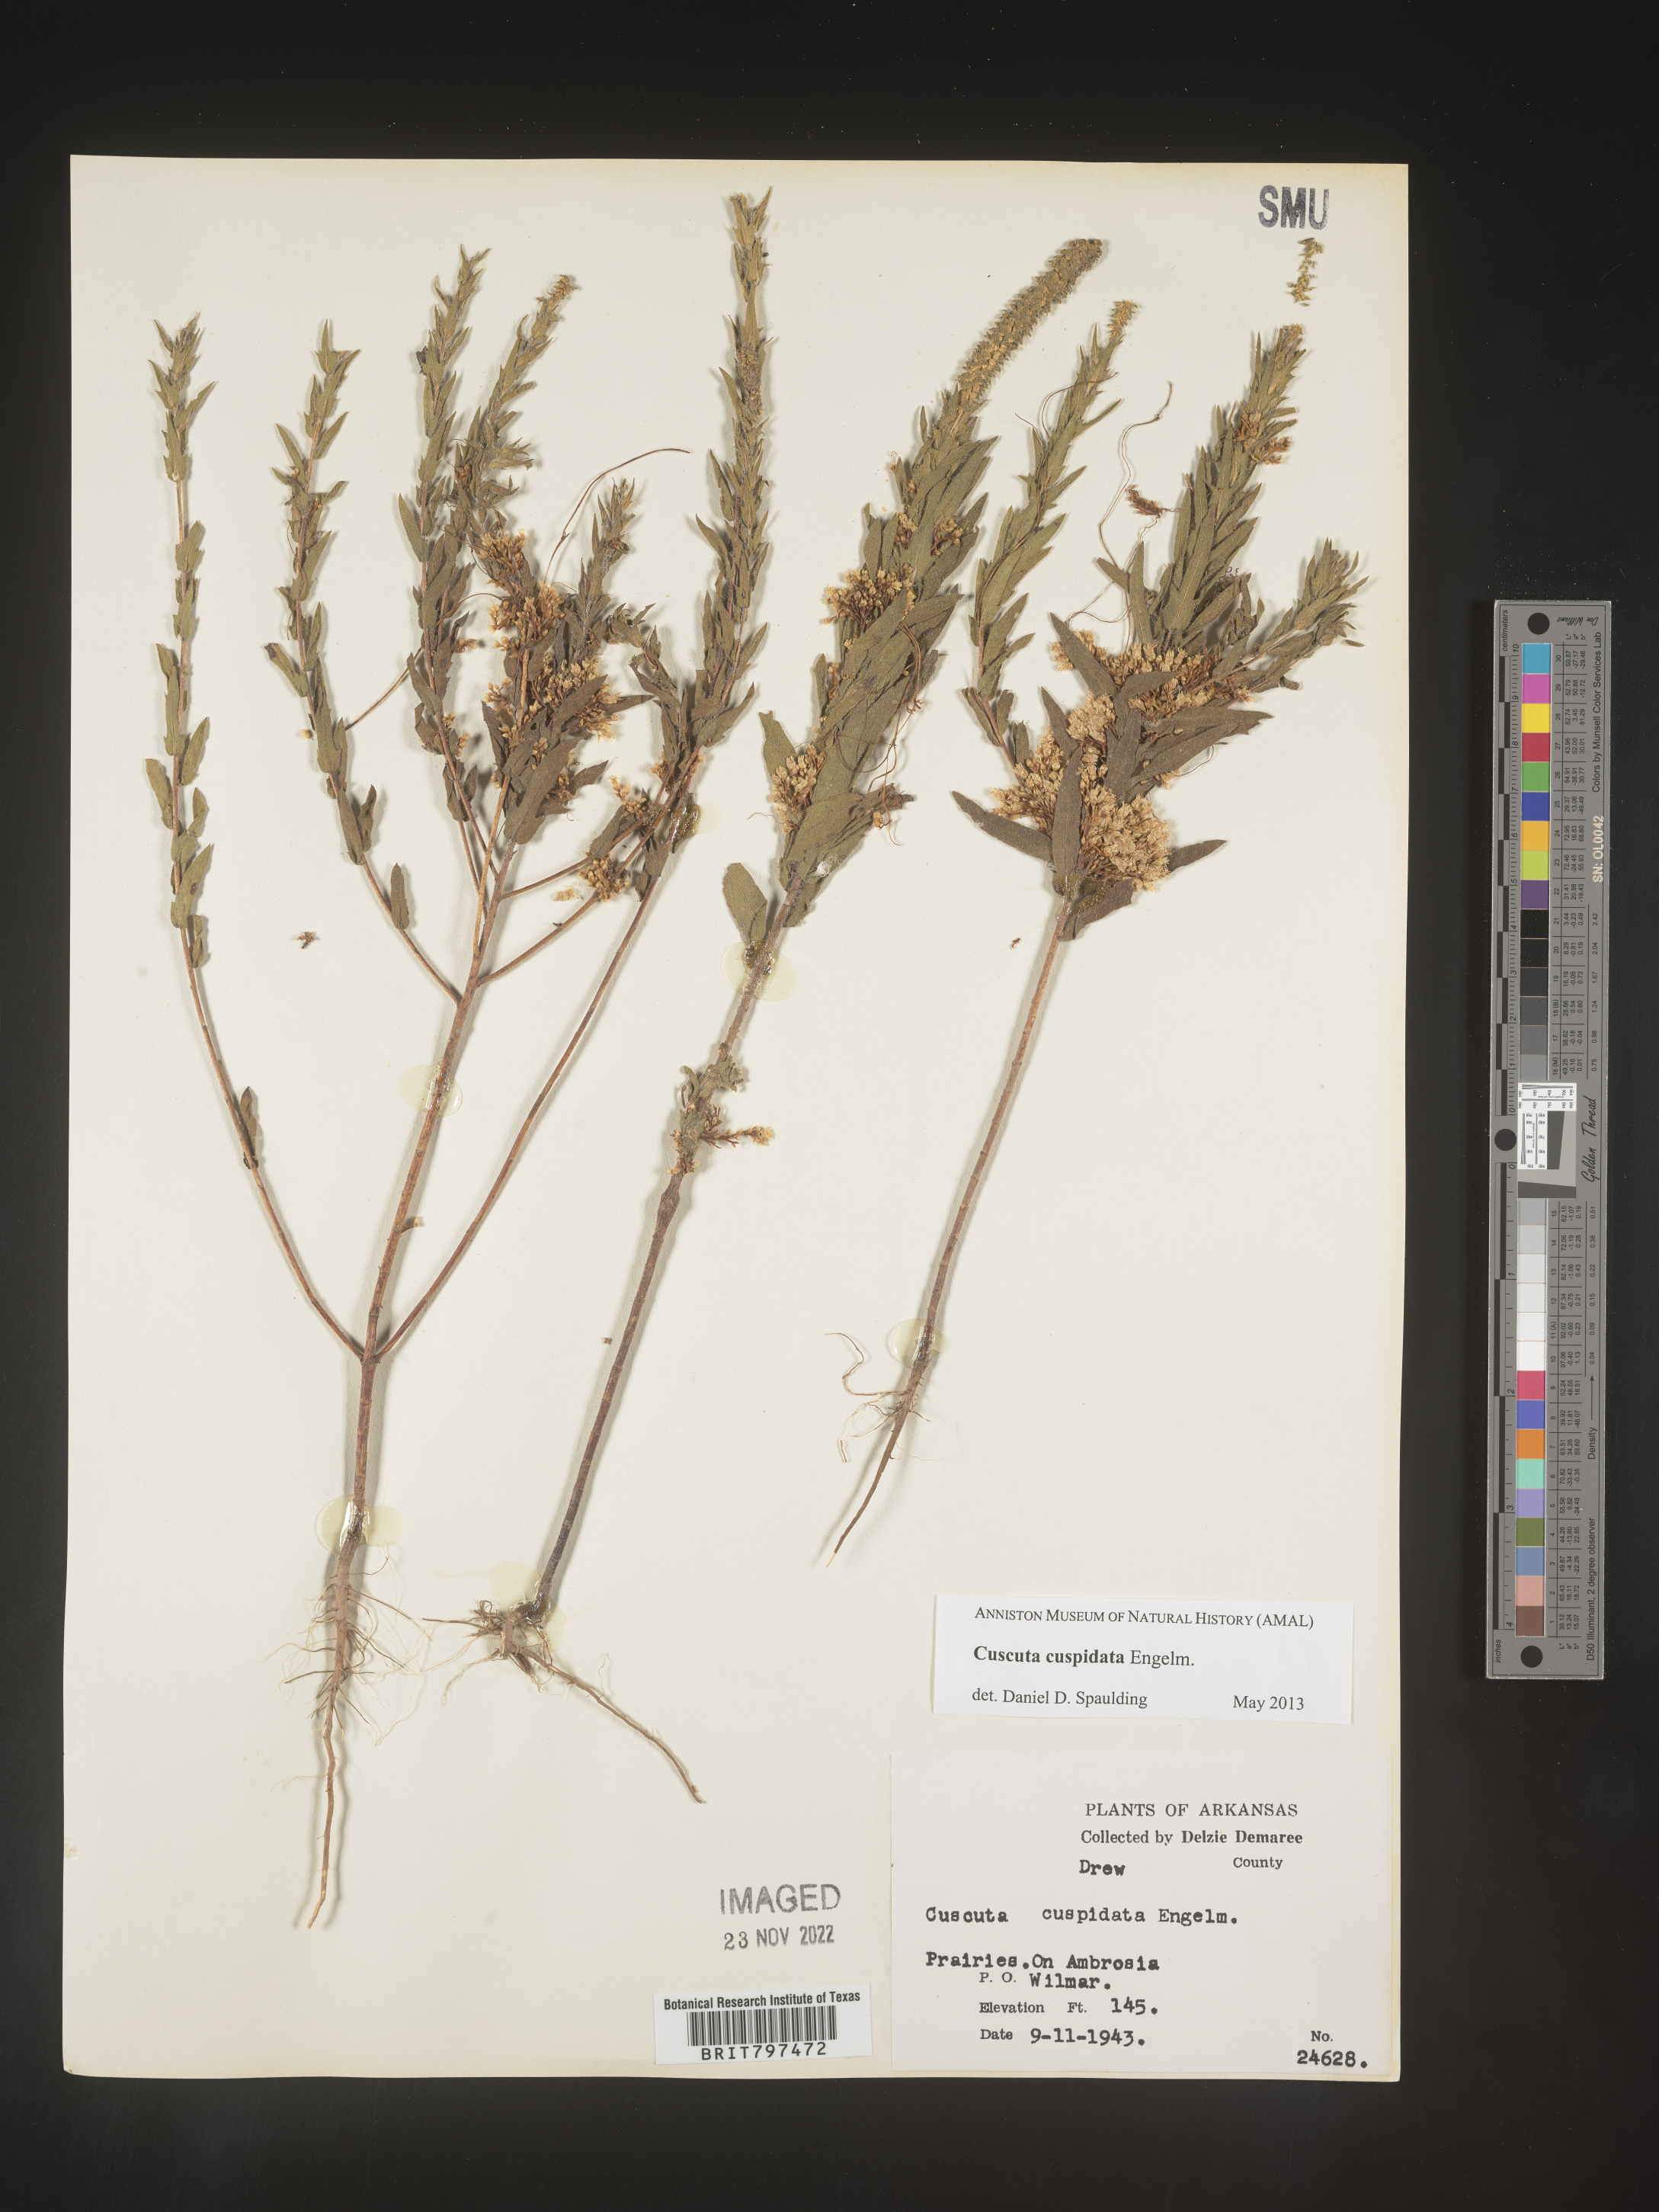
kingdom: Plantae
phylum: Tracheophyta
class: Magnoliopsida
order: Solanales
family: Convolvulaceae
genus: Cuscuta
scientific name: Cuscuta cuspidata
